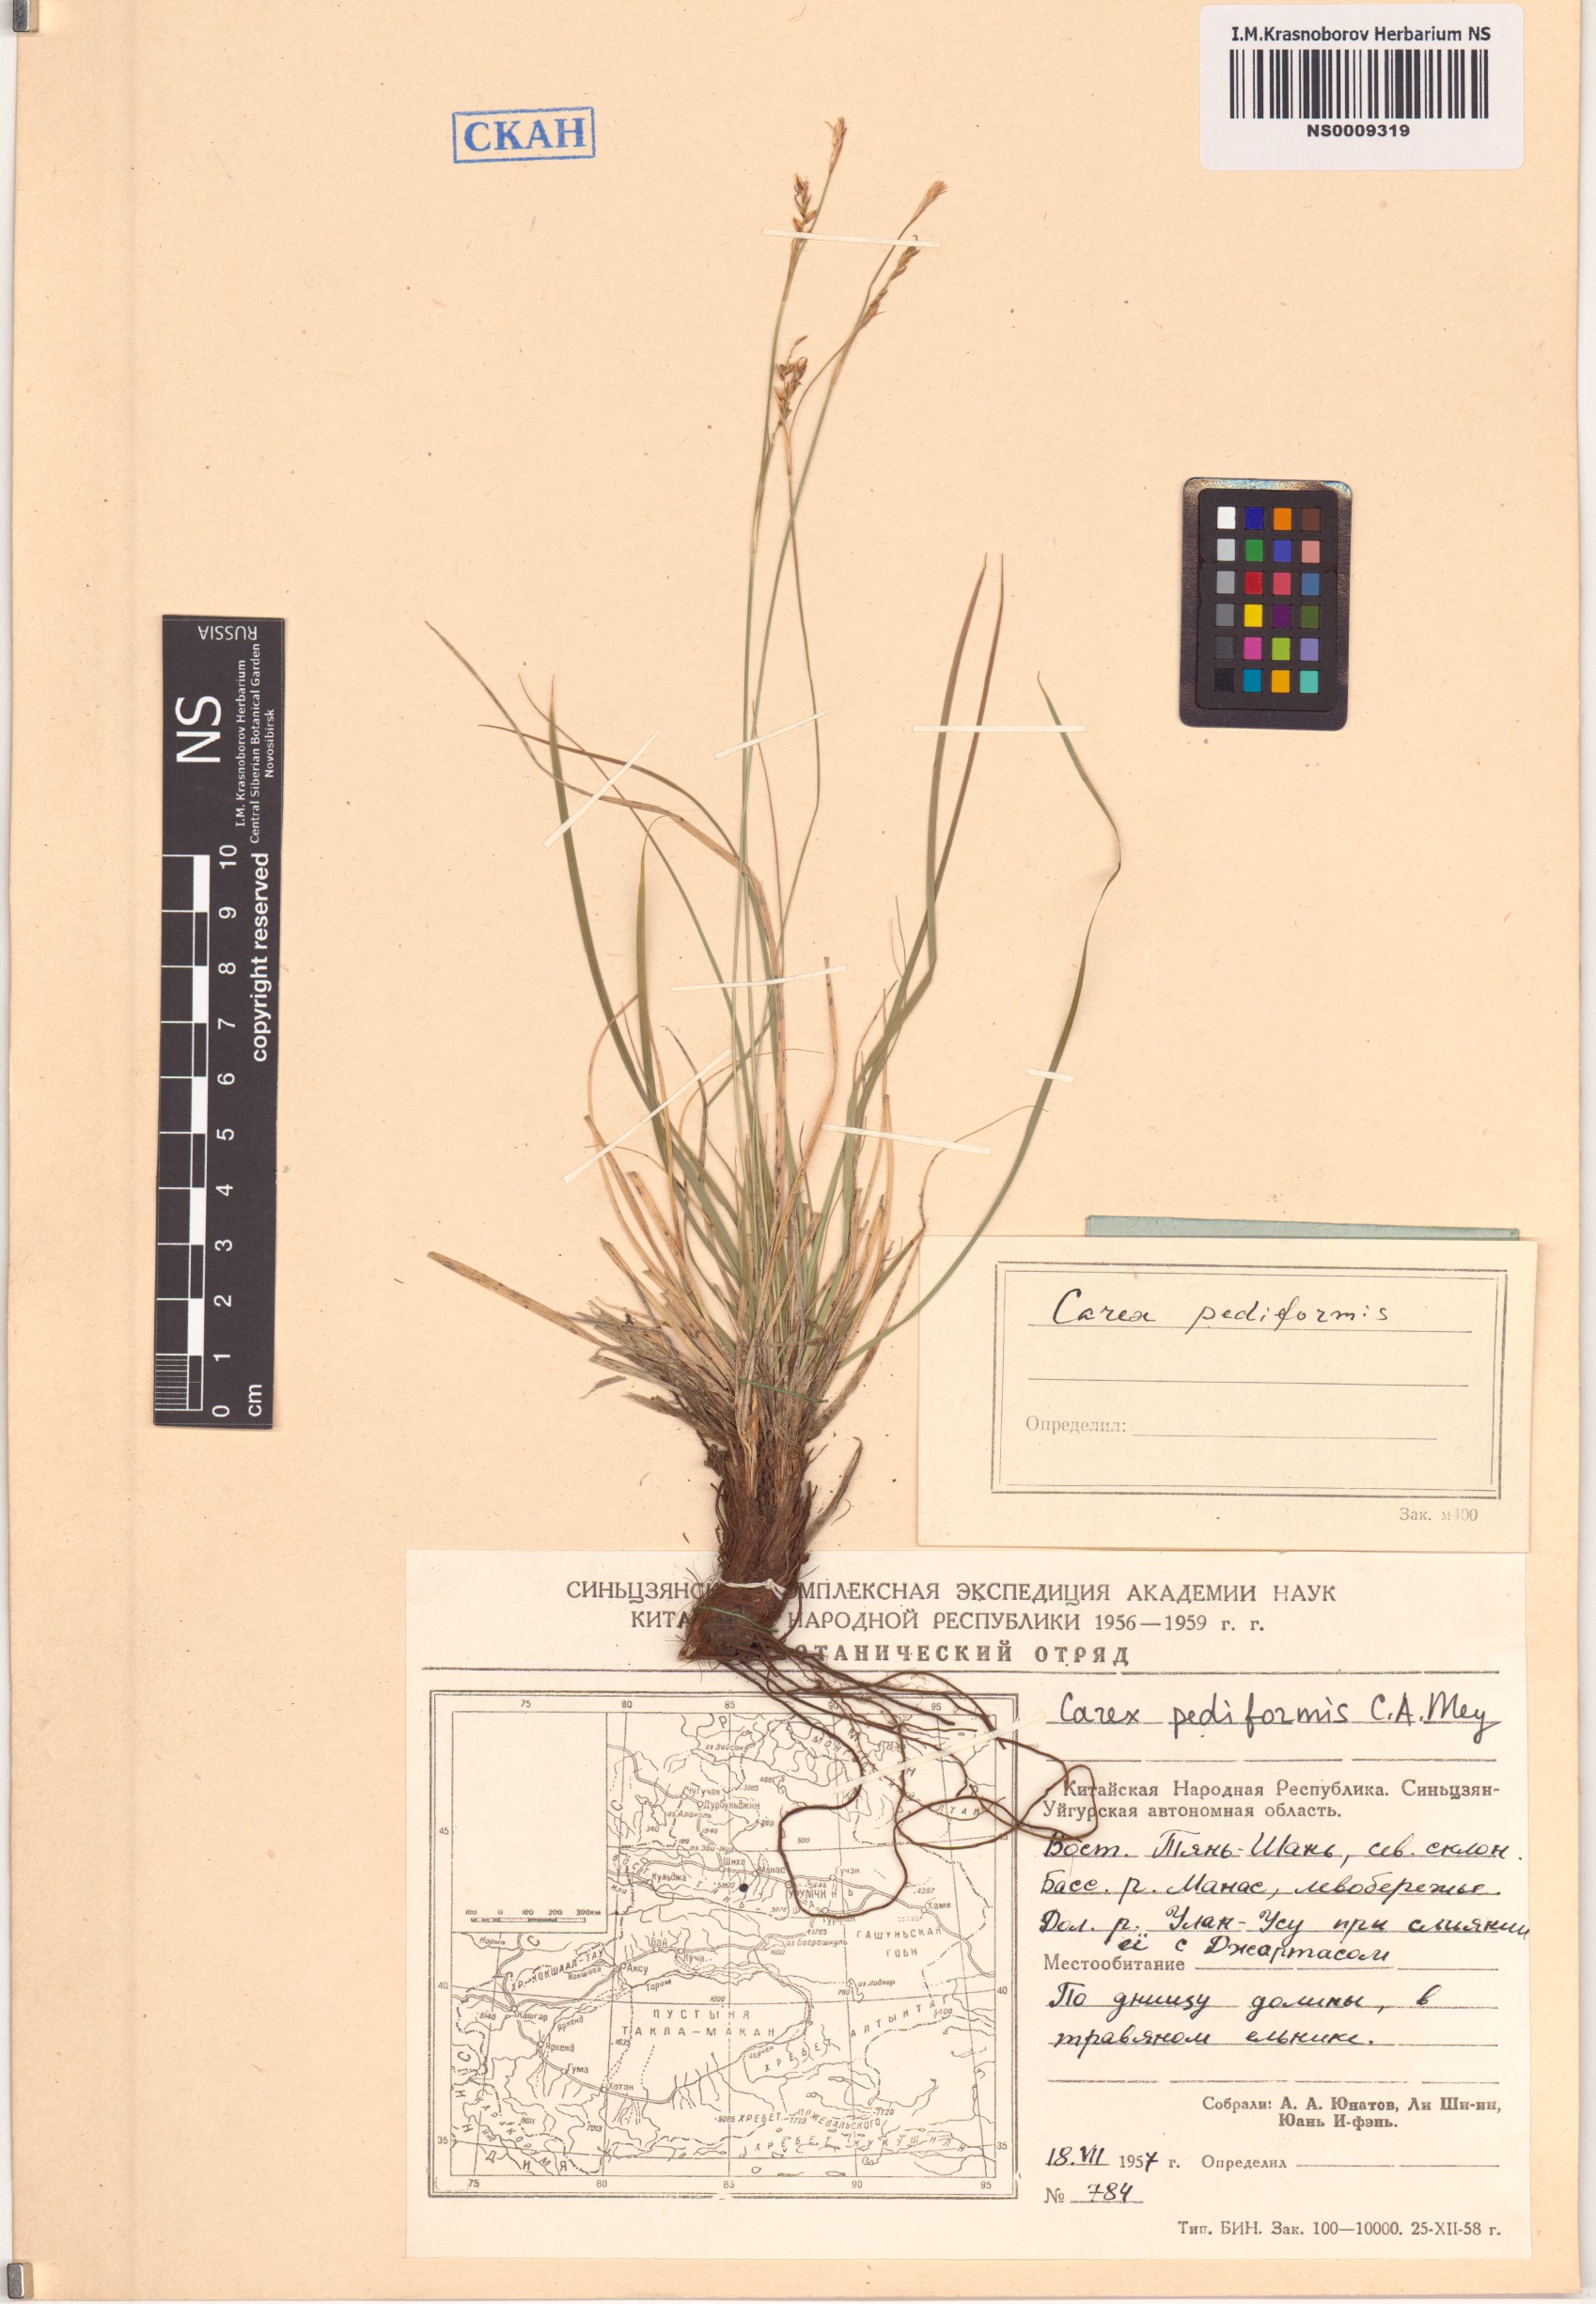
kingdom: Plantae
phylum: Tracheophyta
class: Liliopsida
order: Poales
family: Cyperaceae
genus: Carex
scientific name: Carex pediformis
